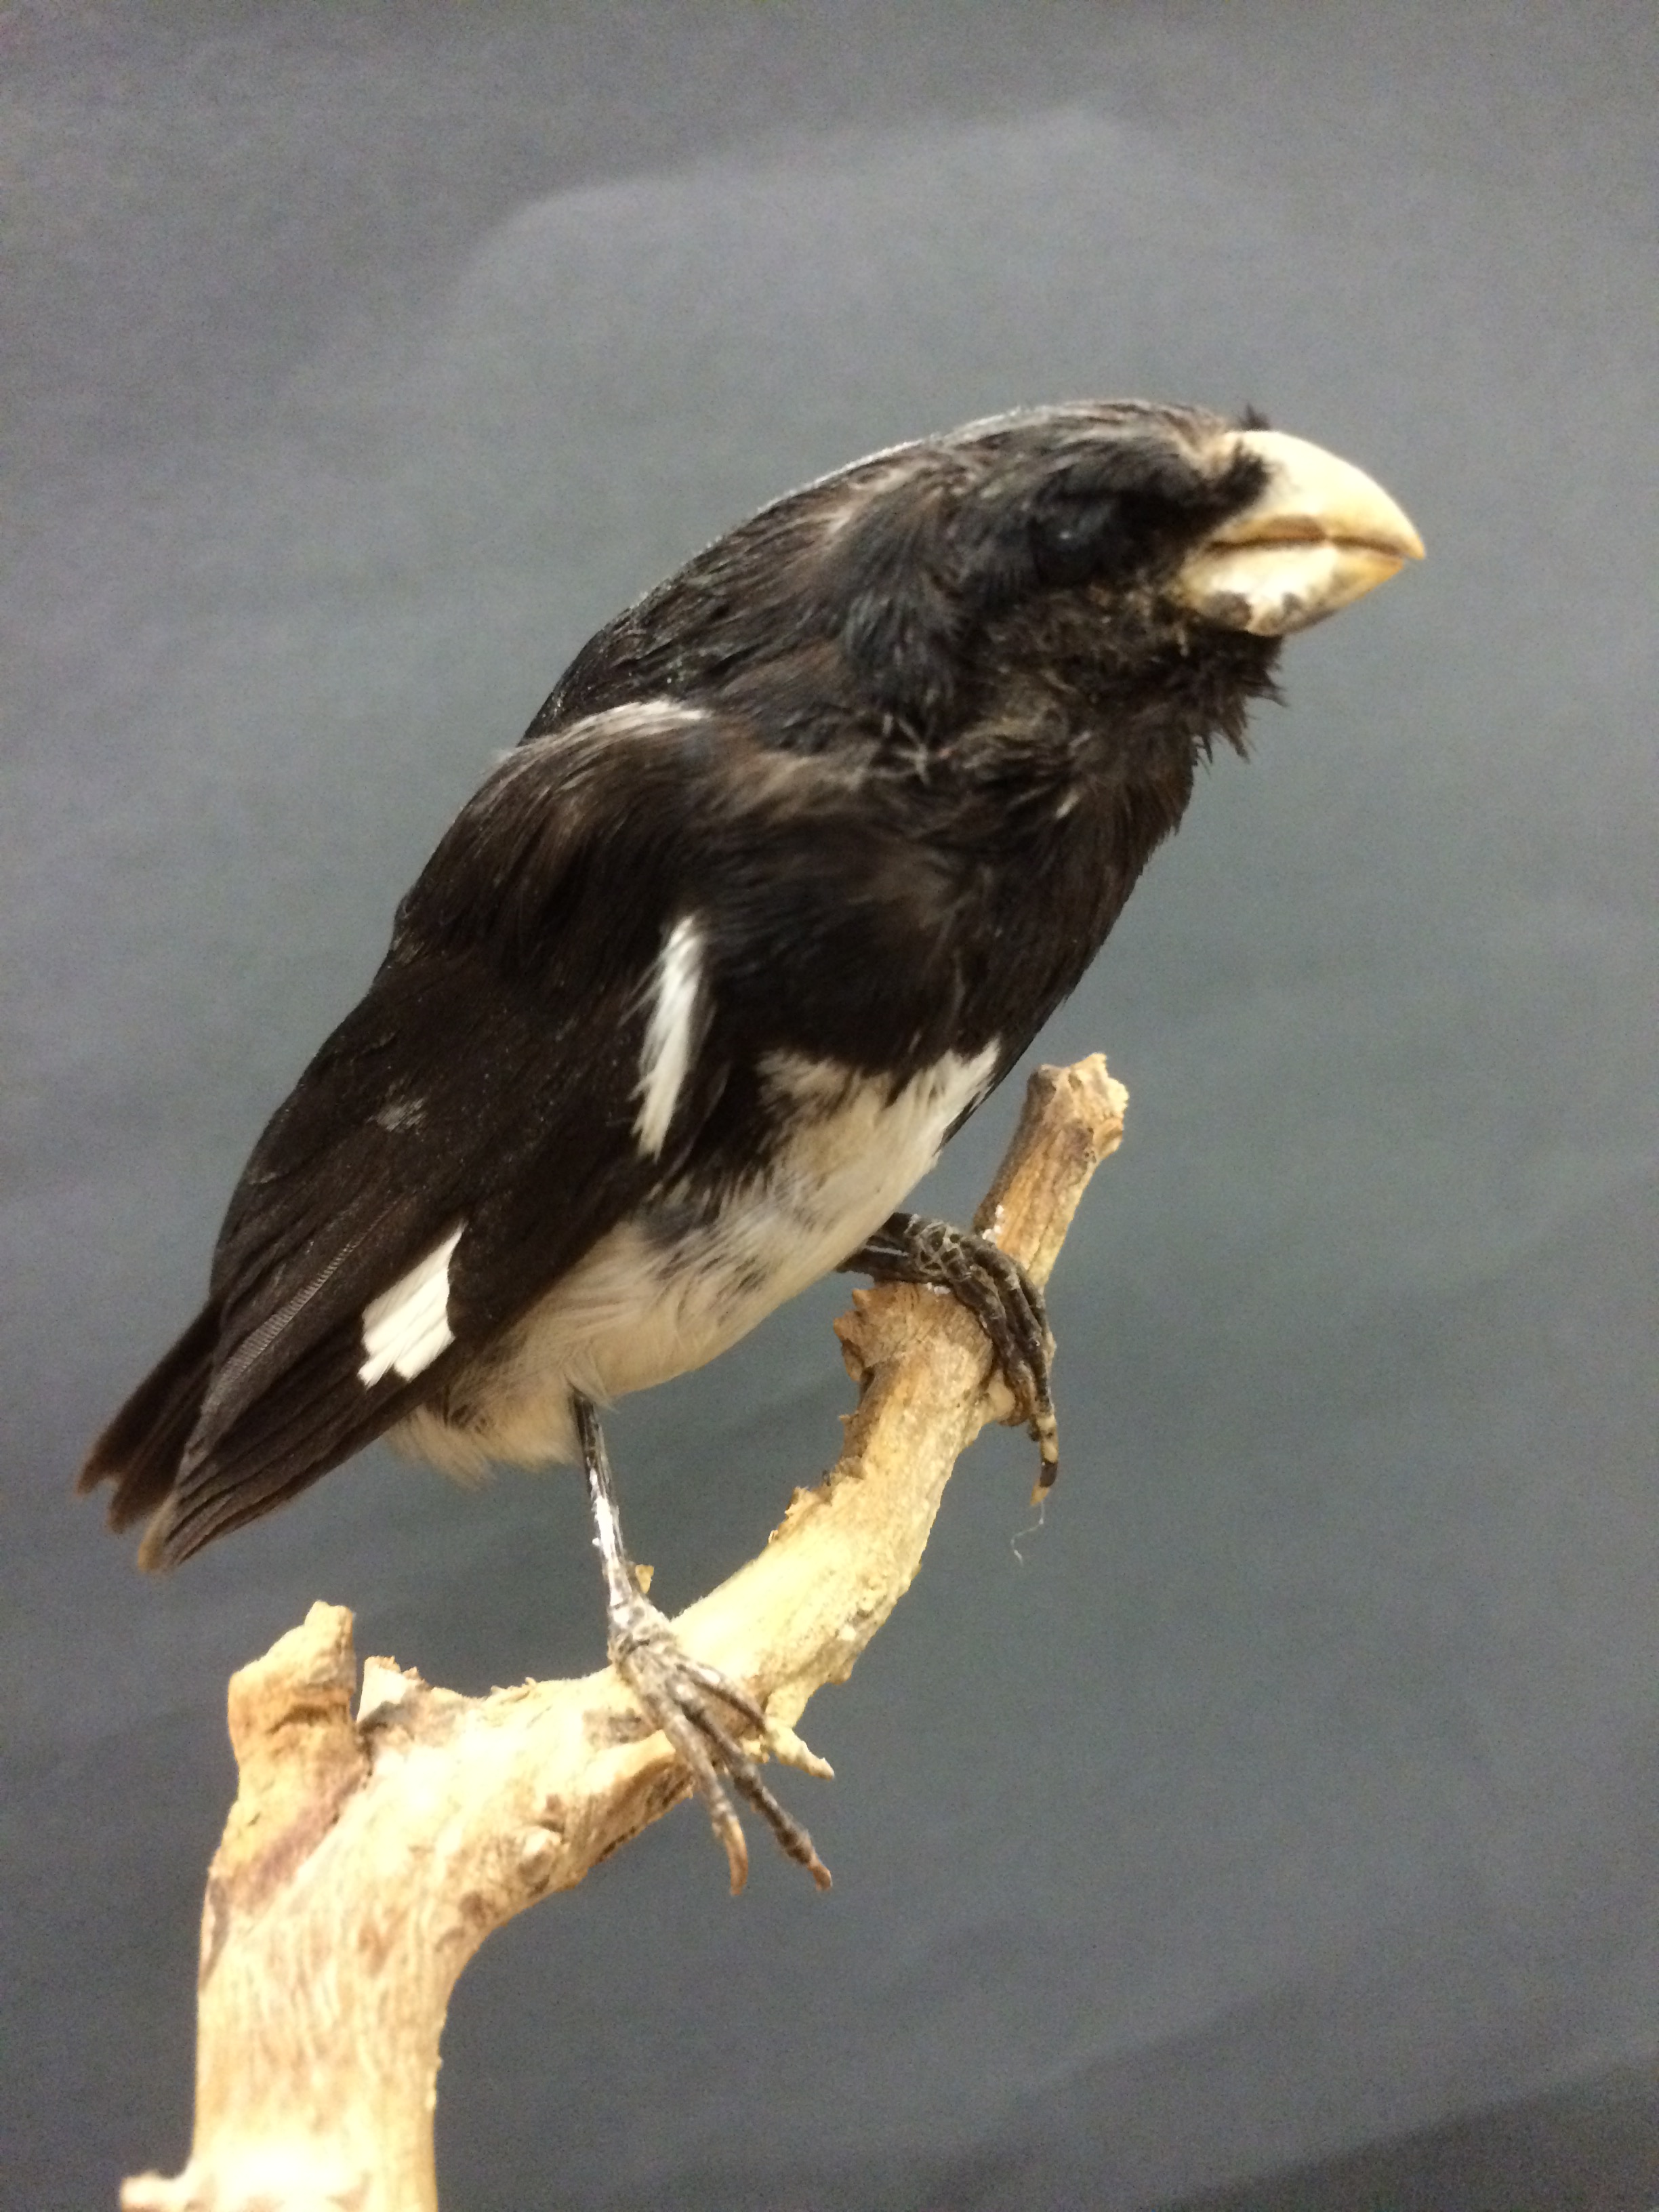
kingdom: Animalia
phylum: Chordata
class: Aves
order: Passeriformes
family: Thraupidae
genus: Sporophila
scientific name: Sporophila luctuosa
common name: Black-and-white seedeater
